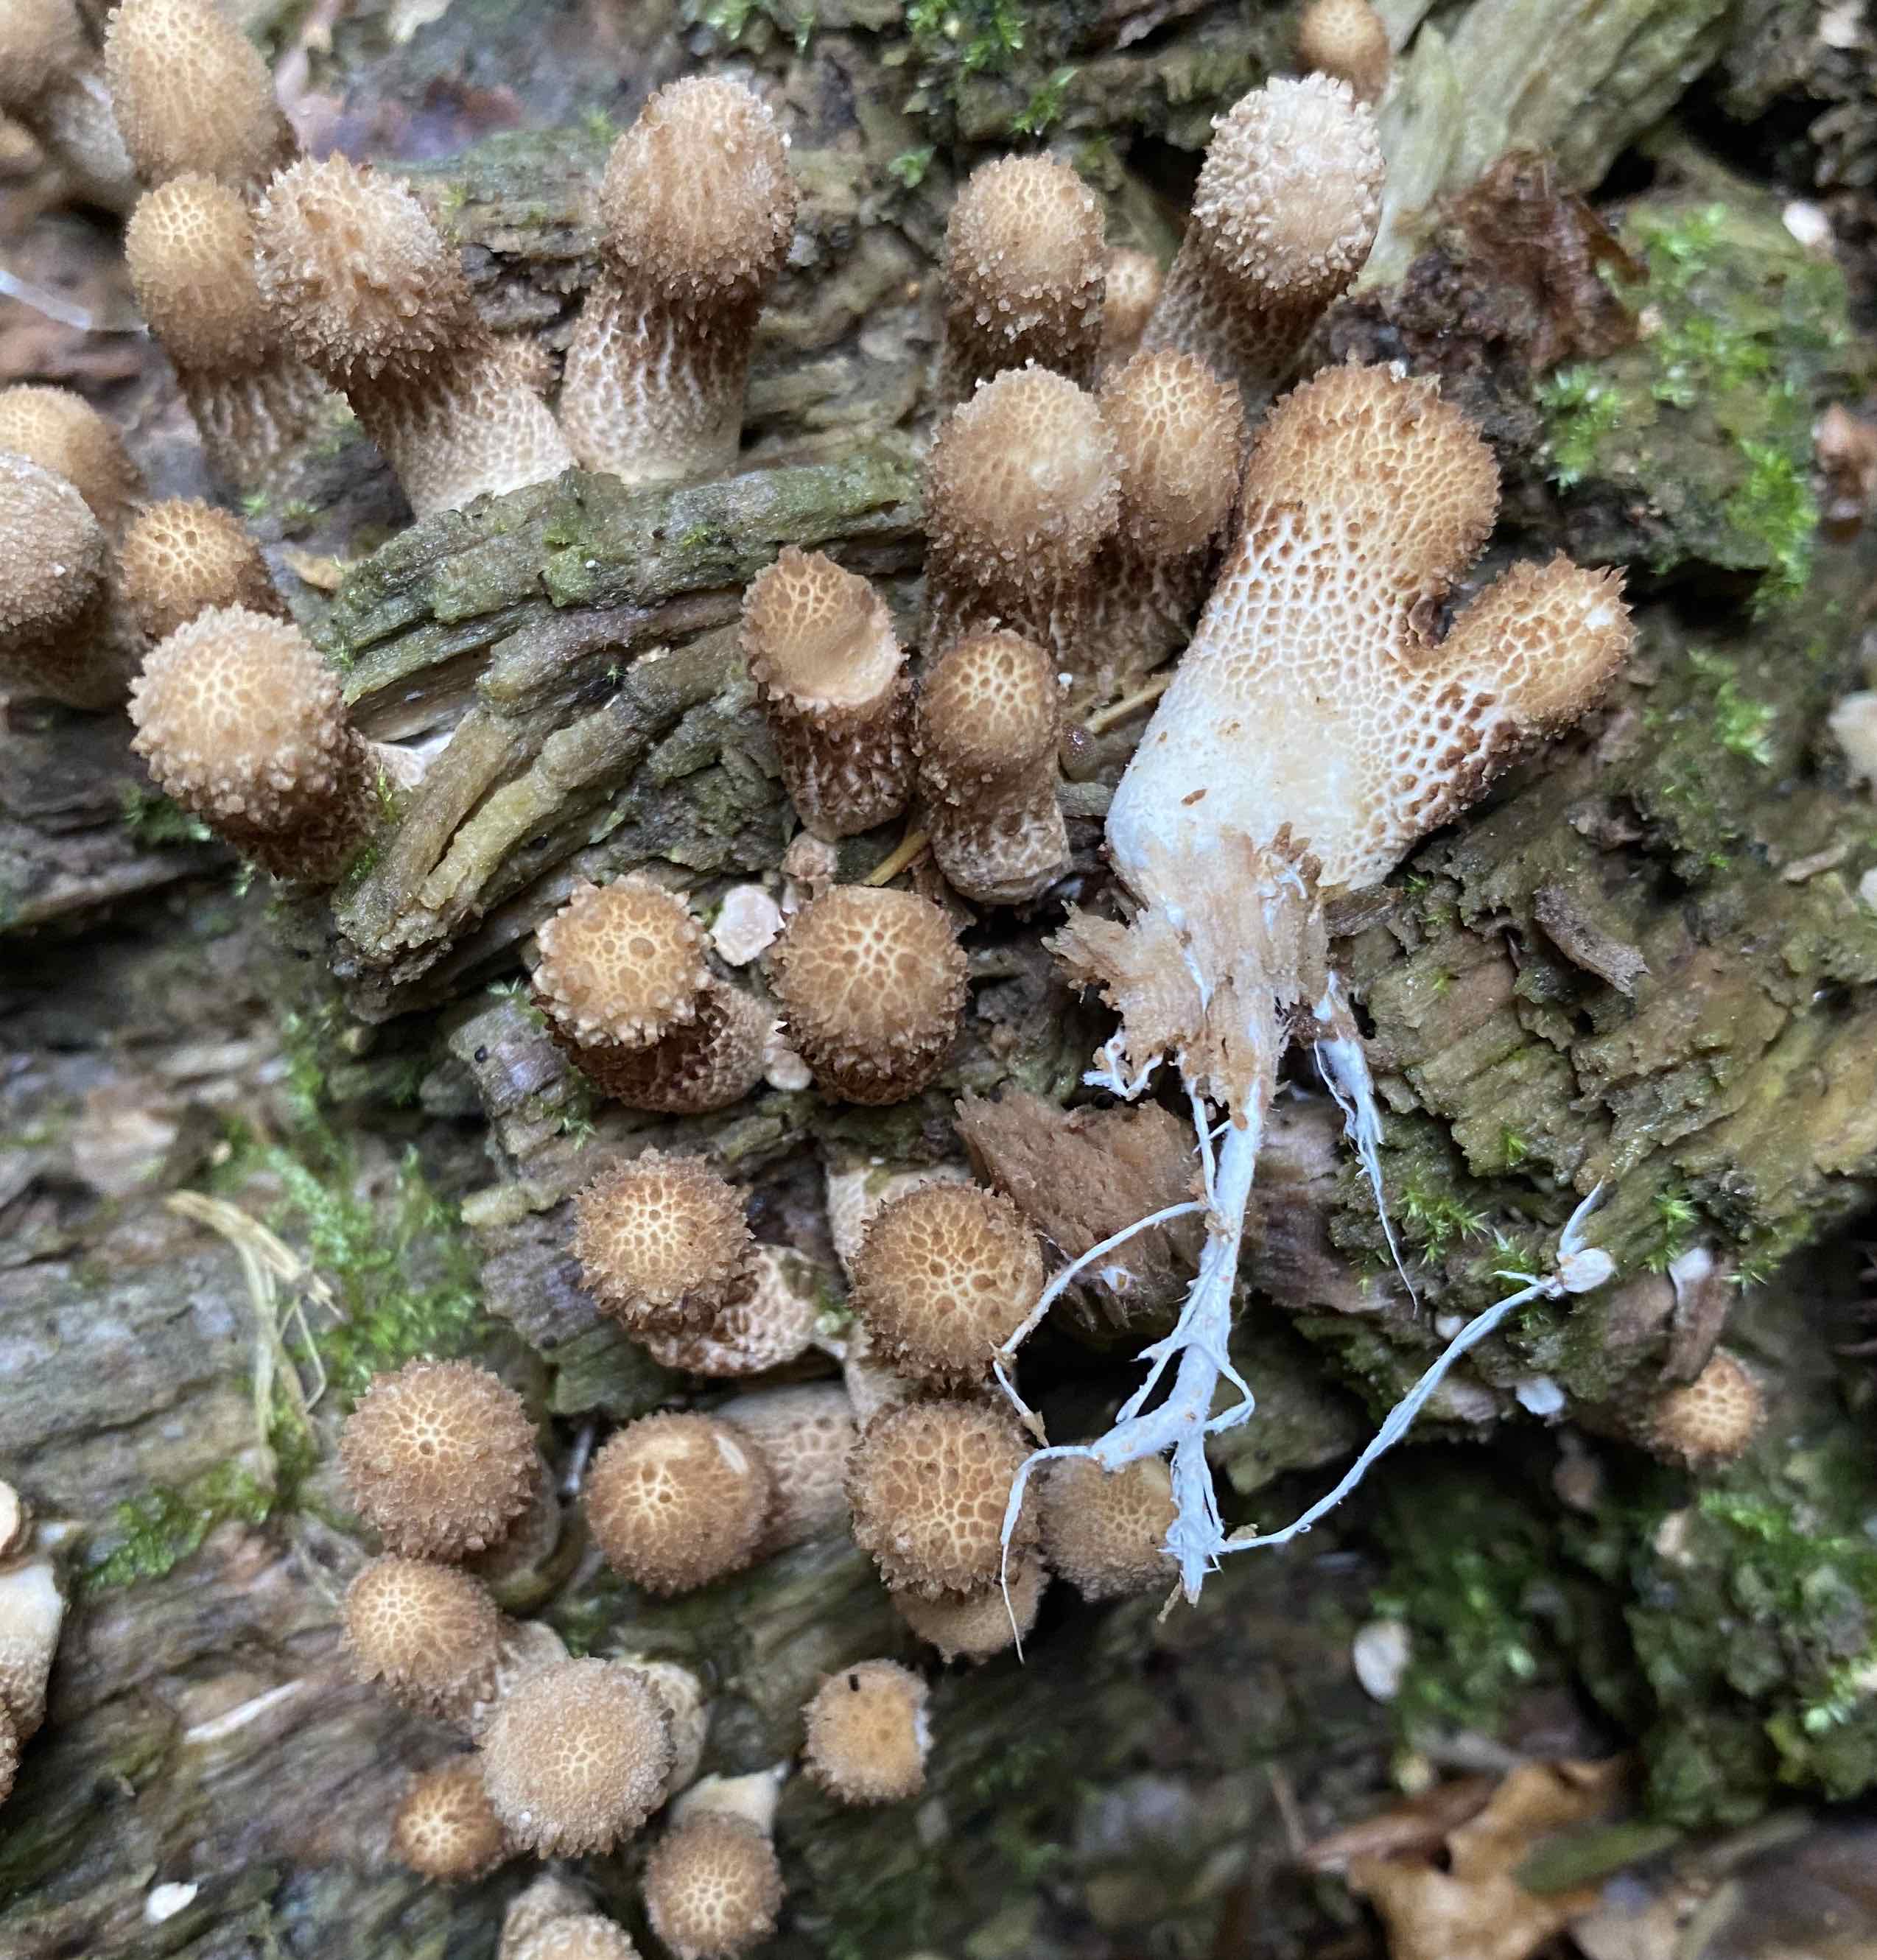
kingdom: Fungi
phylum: Basidiomycota
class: Agaricomycetes
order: Agaricales
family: Lycoperdaceae
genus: Apioperdon
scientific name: Apioperdon pyriforme
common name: pære-støvbold
